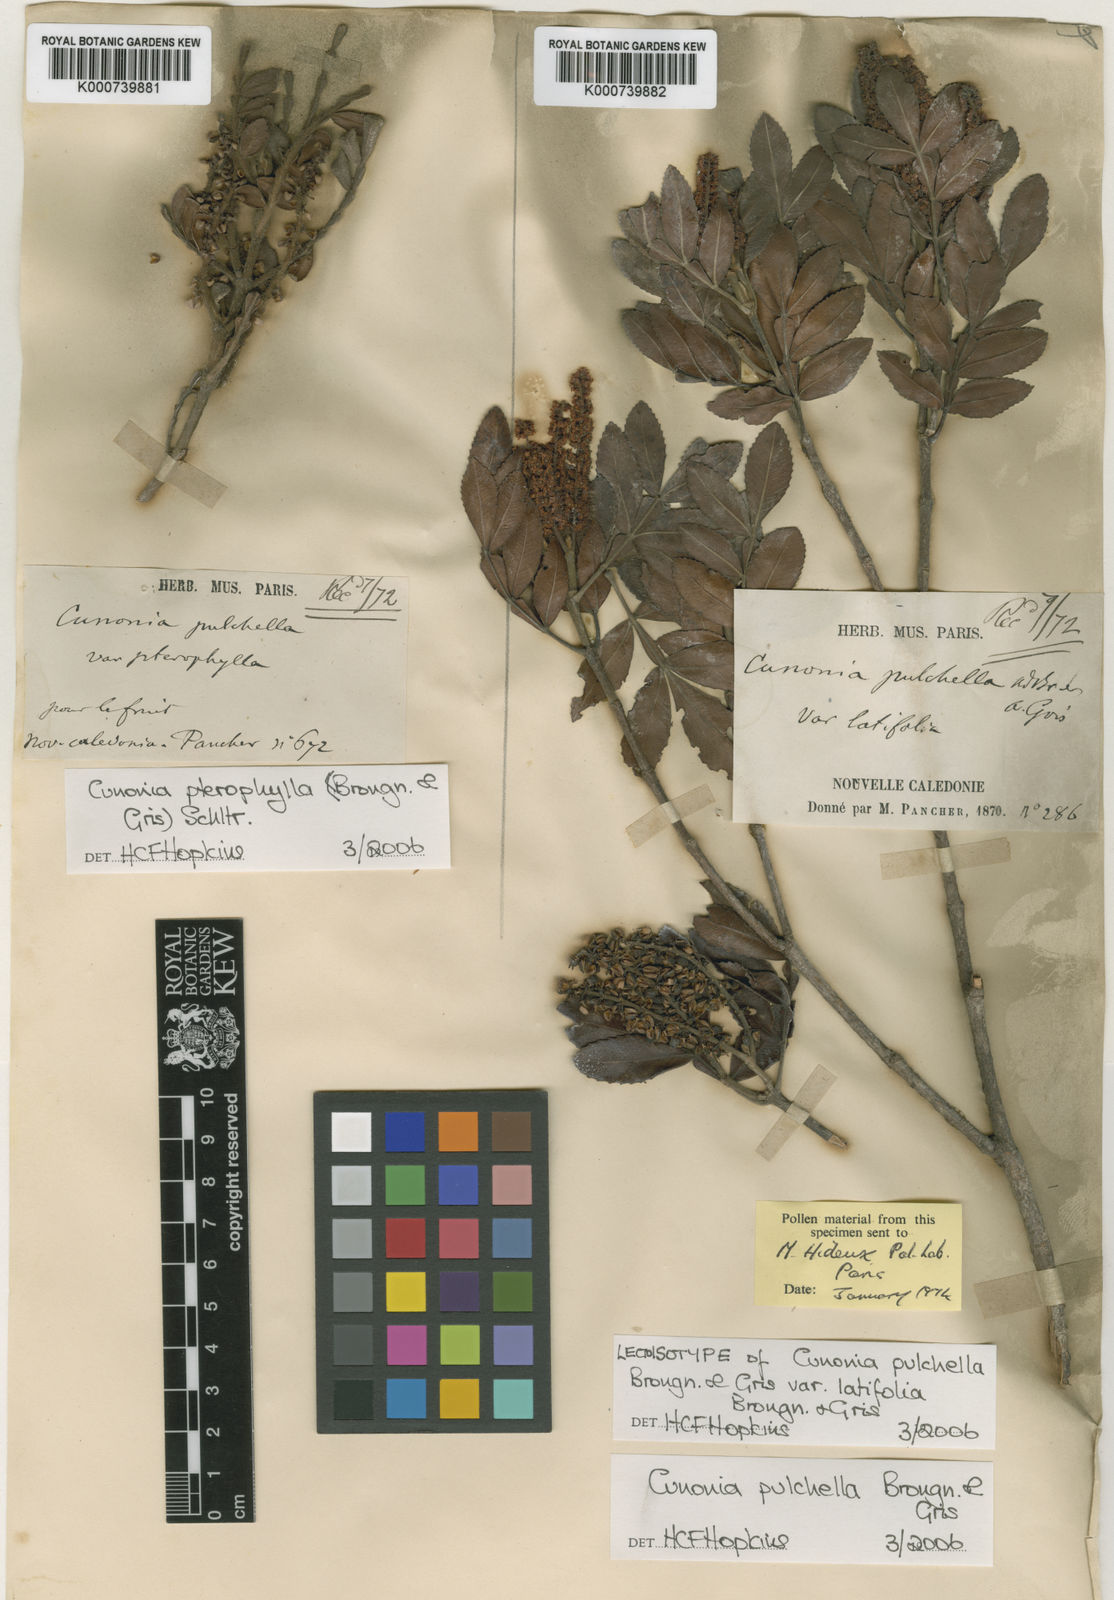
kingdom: Plantae
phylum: Tracheophyta
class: Magnoliopsida
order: Oxalidales
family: Cunoniaceae
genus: Cunonia
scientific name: Cunonia pterophylla
